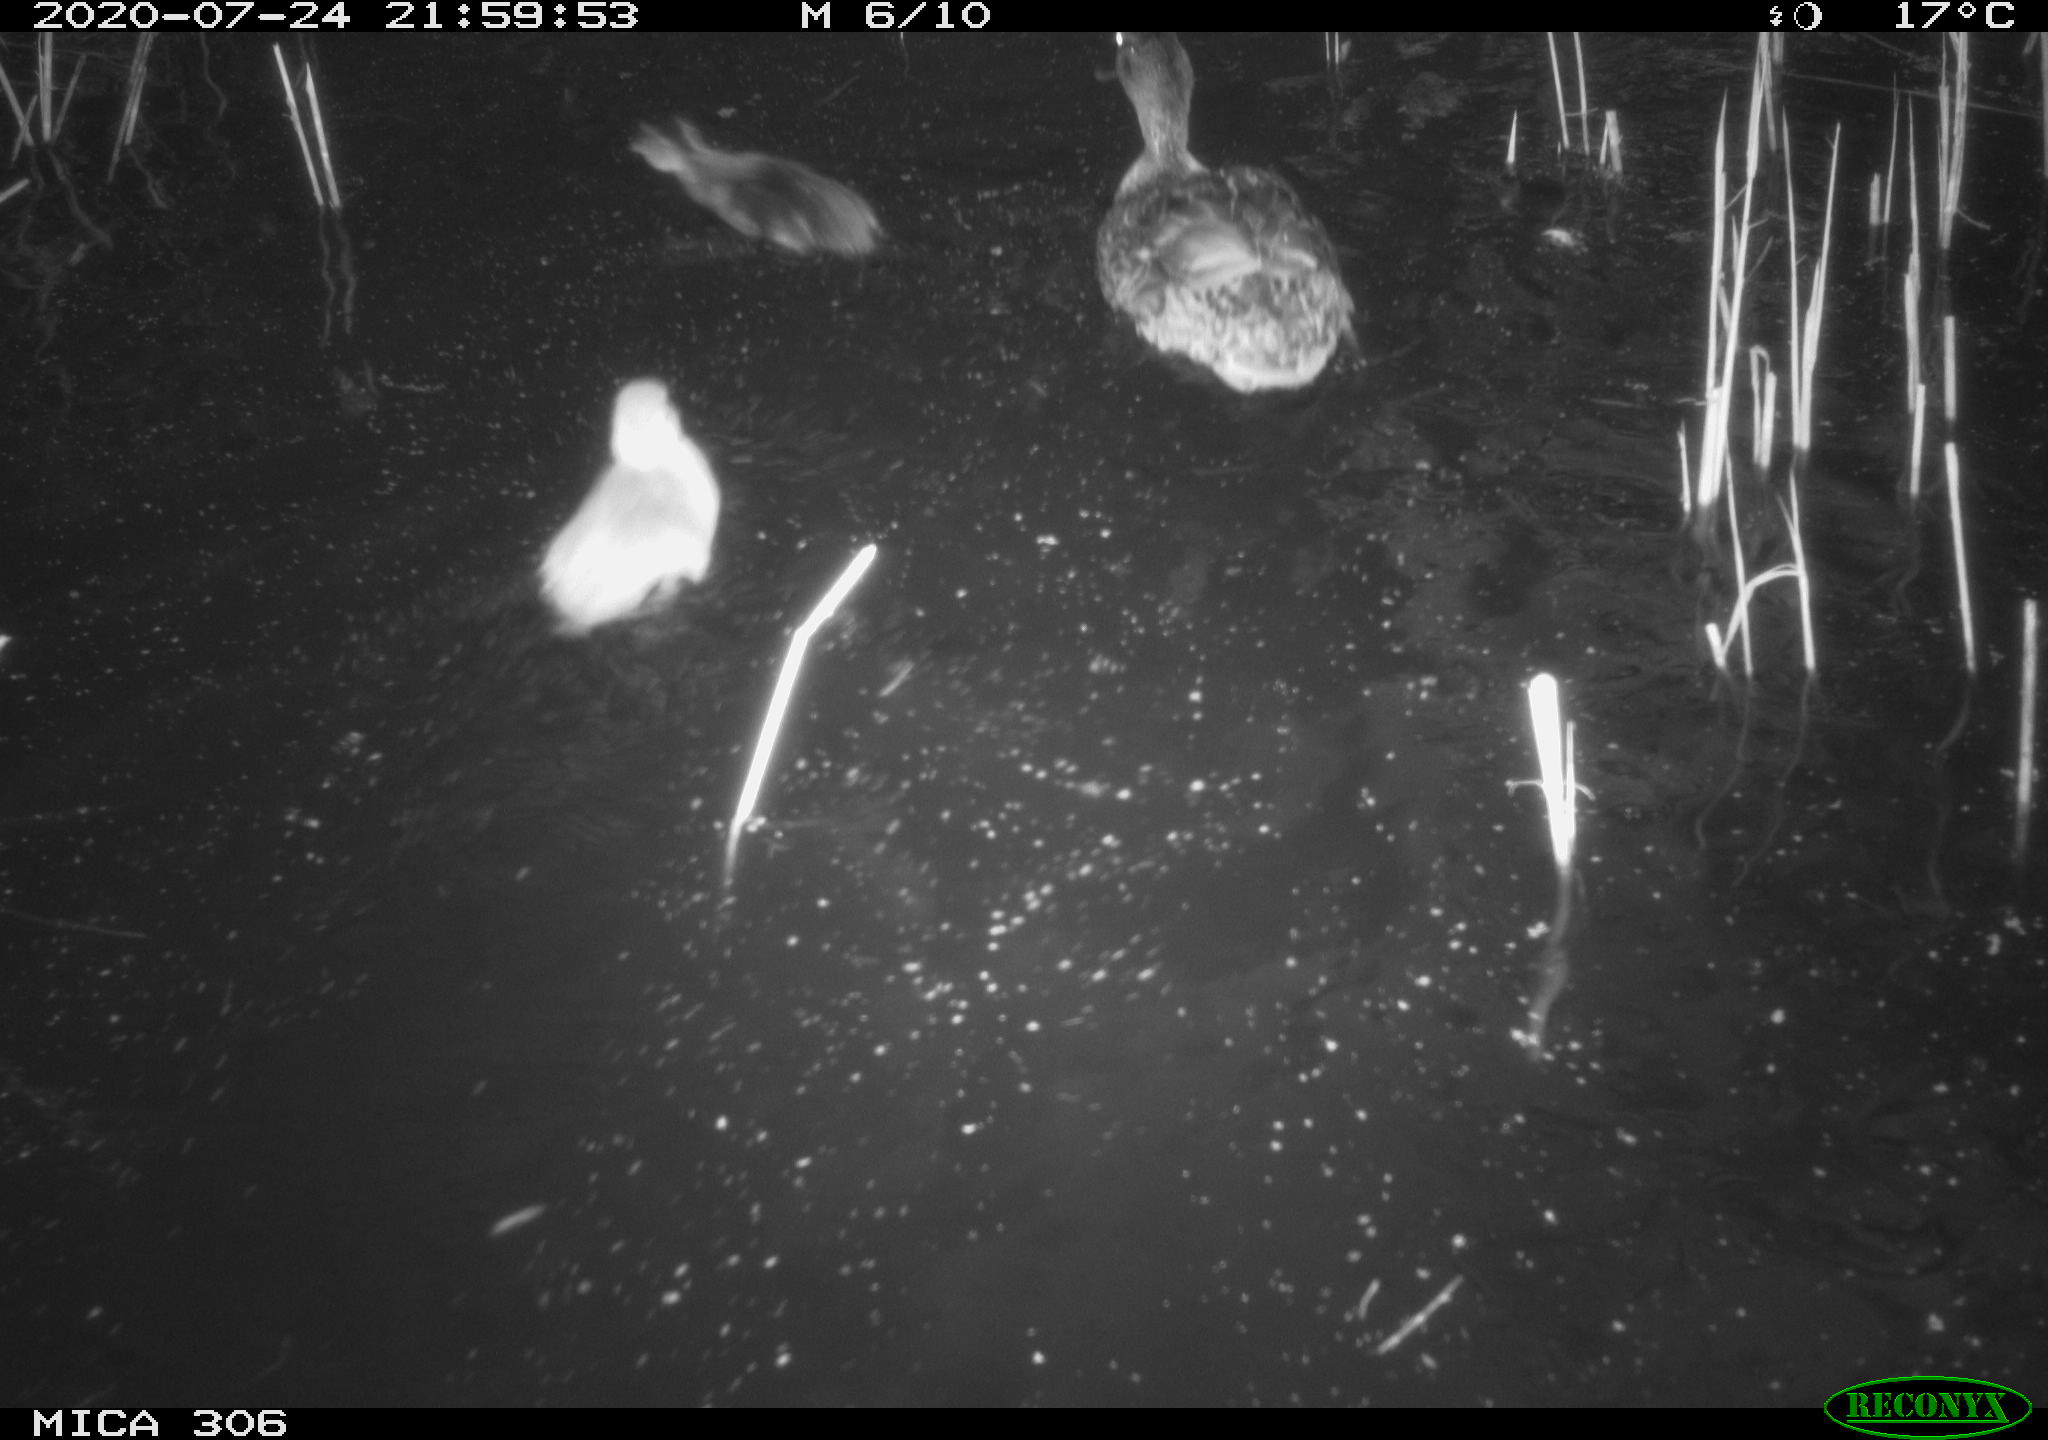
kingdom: Animalia
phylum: Chordata
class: Aves
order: Anseriformes
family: Anatidae
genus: Anas
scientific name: Anas platyrhynchos
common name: Mallard
